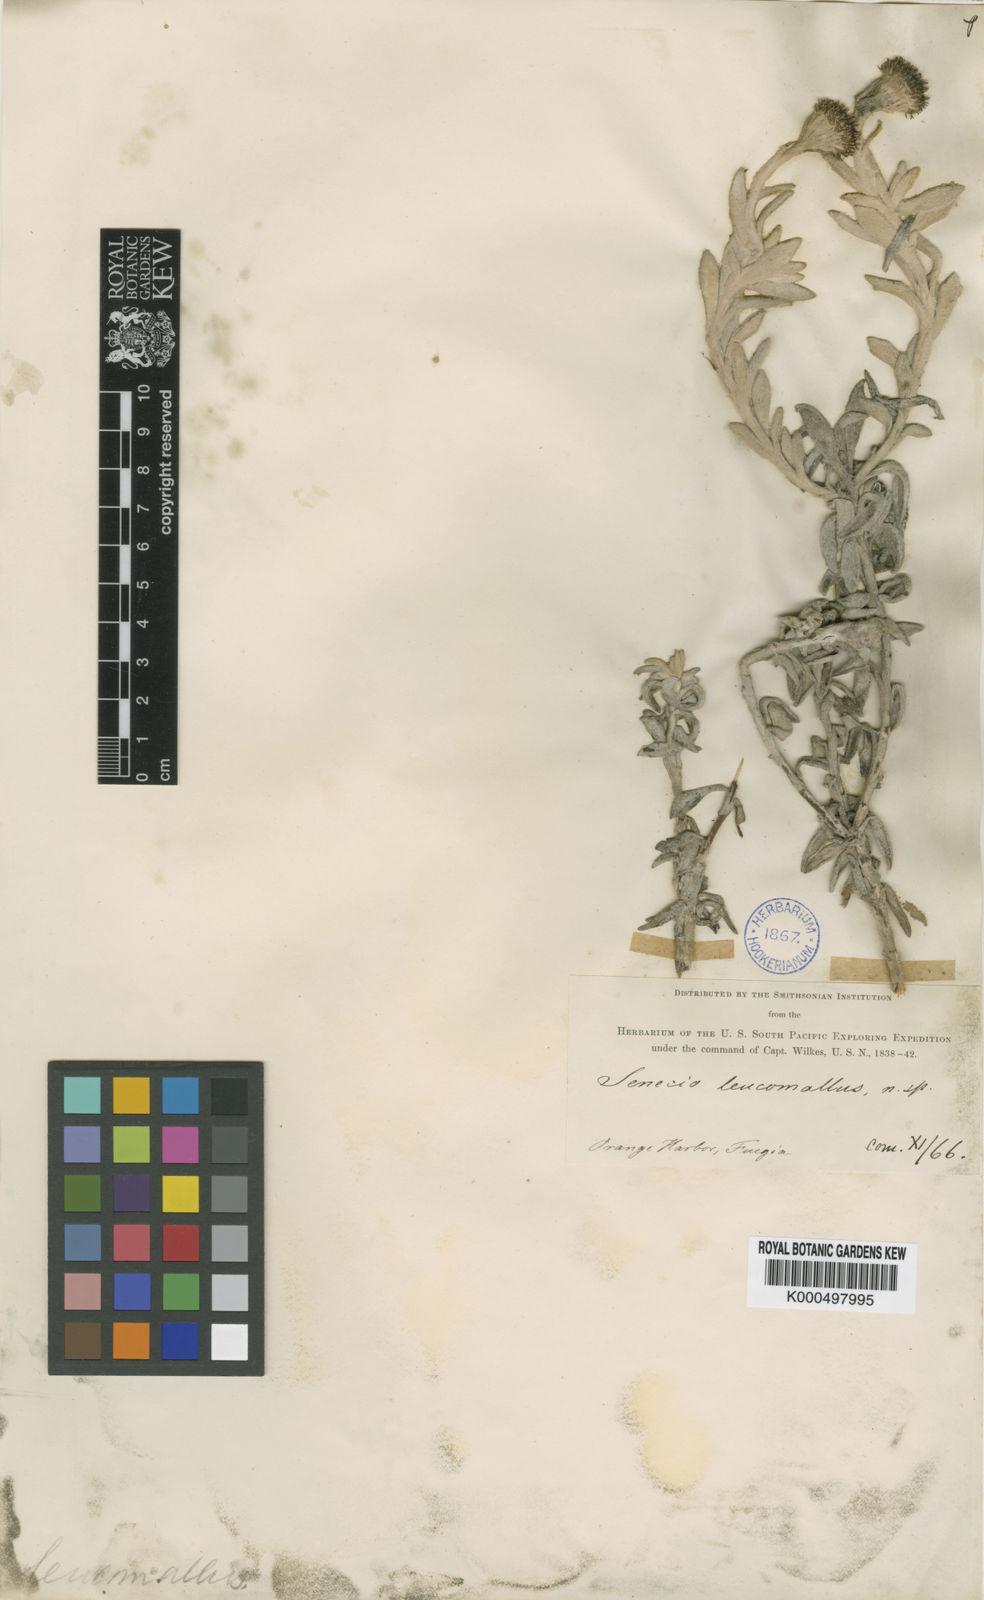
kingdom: Plantae
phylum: Tracheophyta
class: Magnoliopsida
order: Asterales
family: Asteraceae
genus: Senecio
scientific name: Senecio leucomallus
